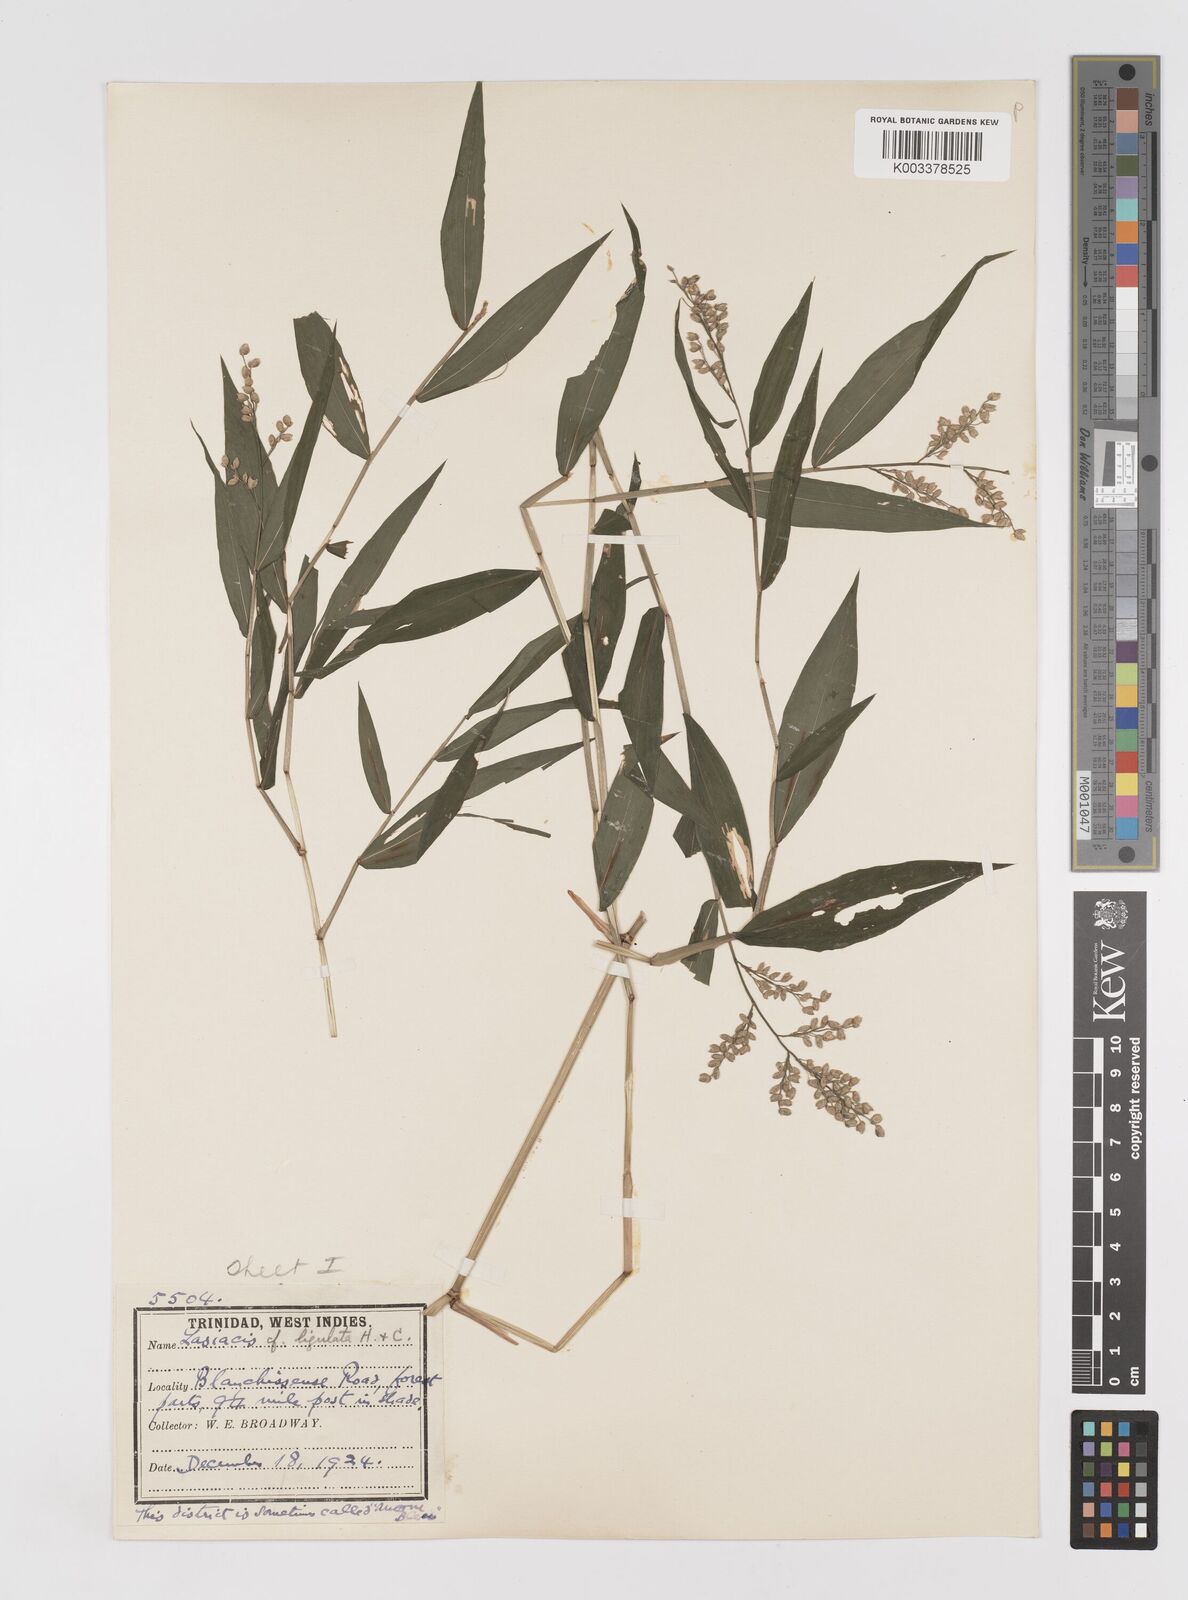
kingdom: Plantae
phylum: Tracheophyta
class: Liliopsida
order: Poales
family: Poaceae
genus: Lasiacis
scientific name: Lasiacis ligulata
